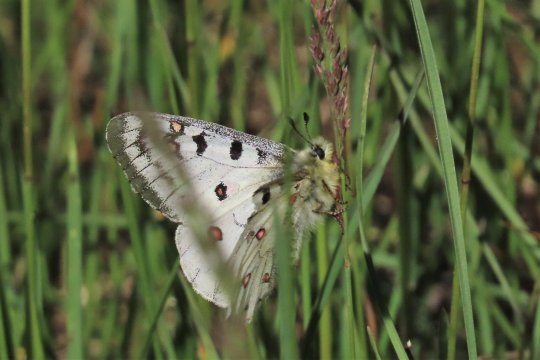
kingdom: Animalia
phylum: Arthropoda
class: Insecta
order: Lepidoptera
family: Papilionidae
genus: Parnassius
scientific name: Parnassius smintheus
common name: Rocky Mountain Parnassian
